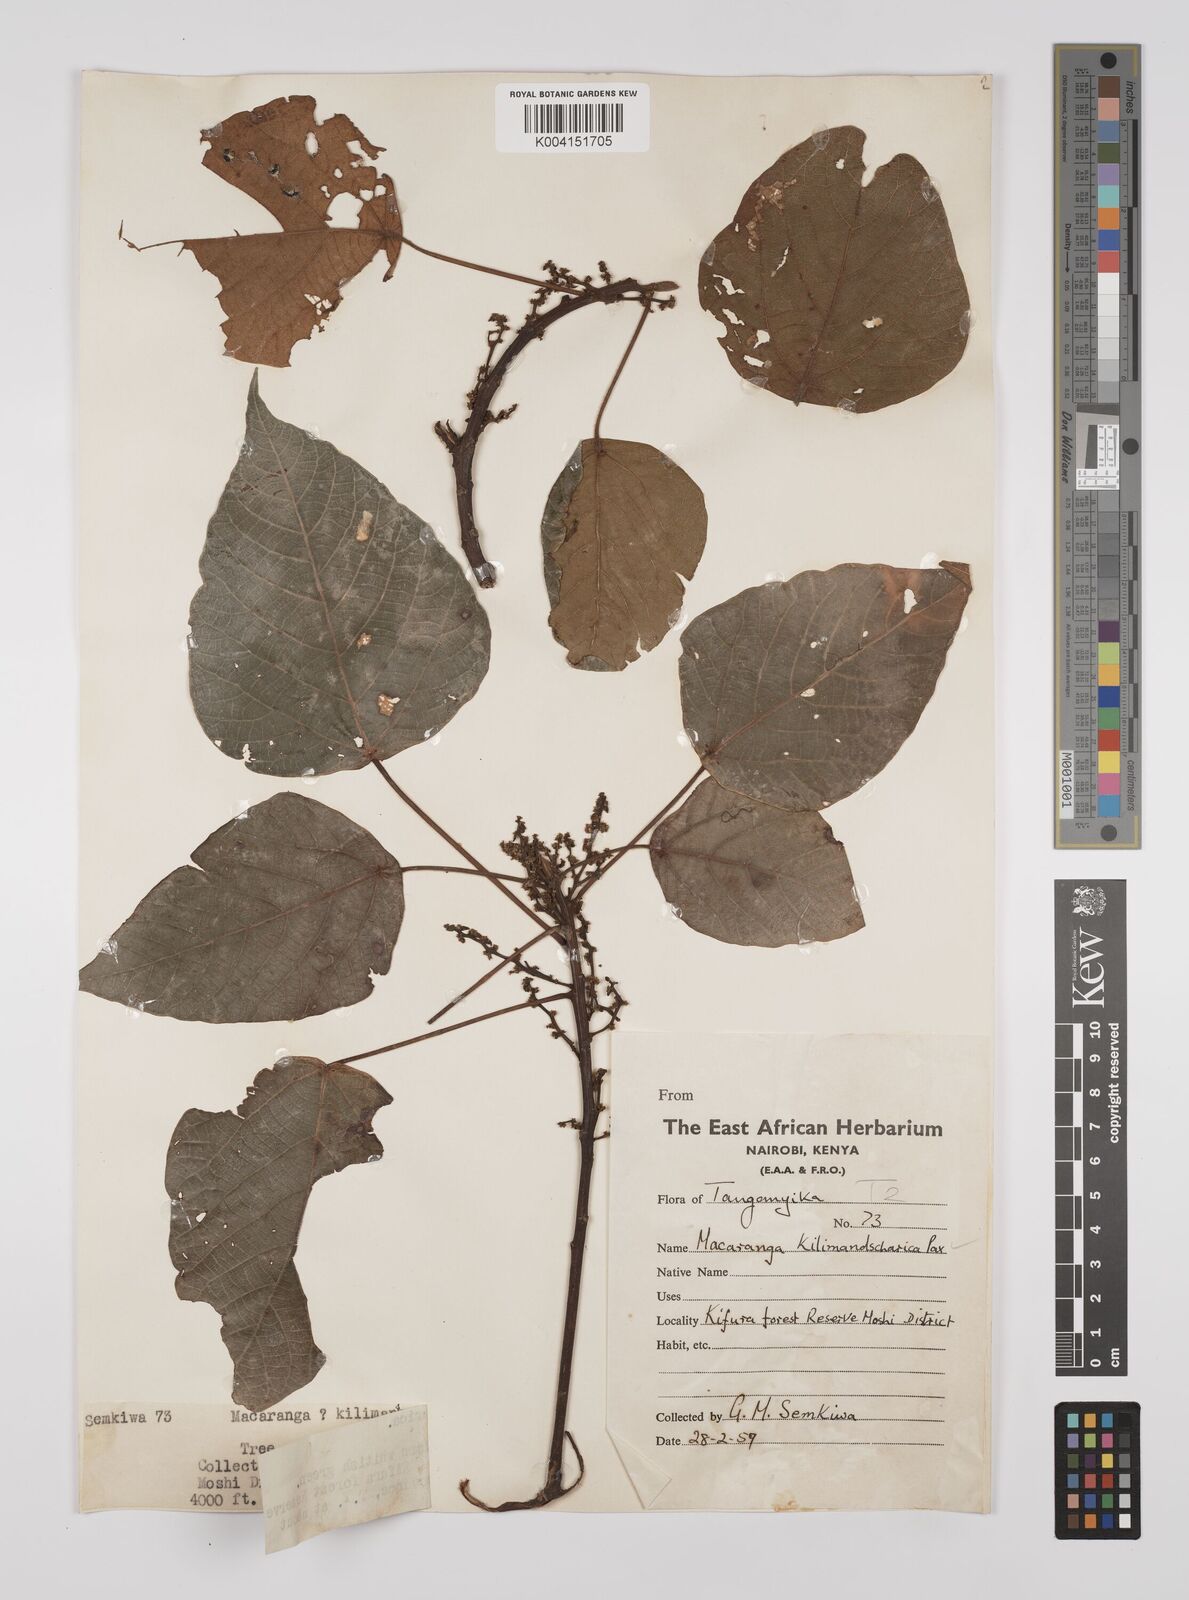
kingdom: Plantae
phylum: Tracheophyta
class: Magnoliopsida
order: Malpighiales
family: Euphorbiaceae
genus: Macaranga
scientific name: Macaranga kilimandscharica
